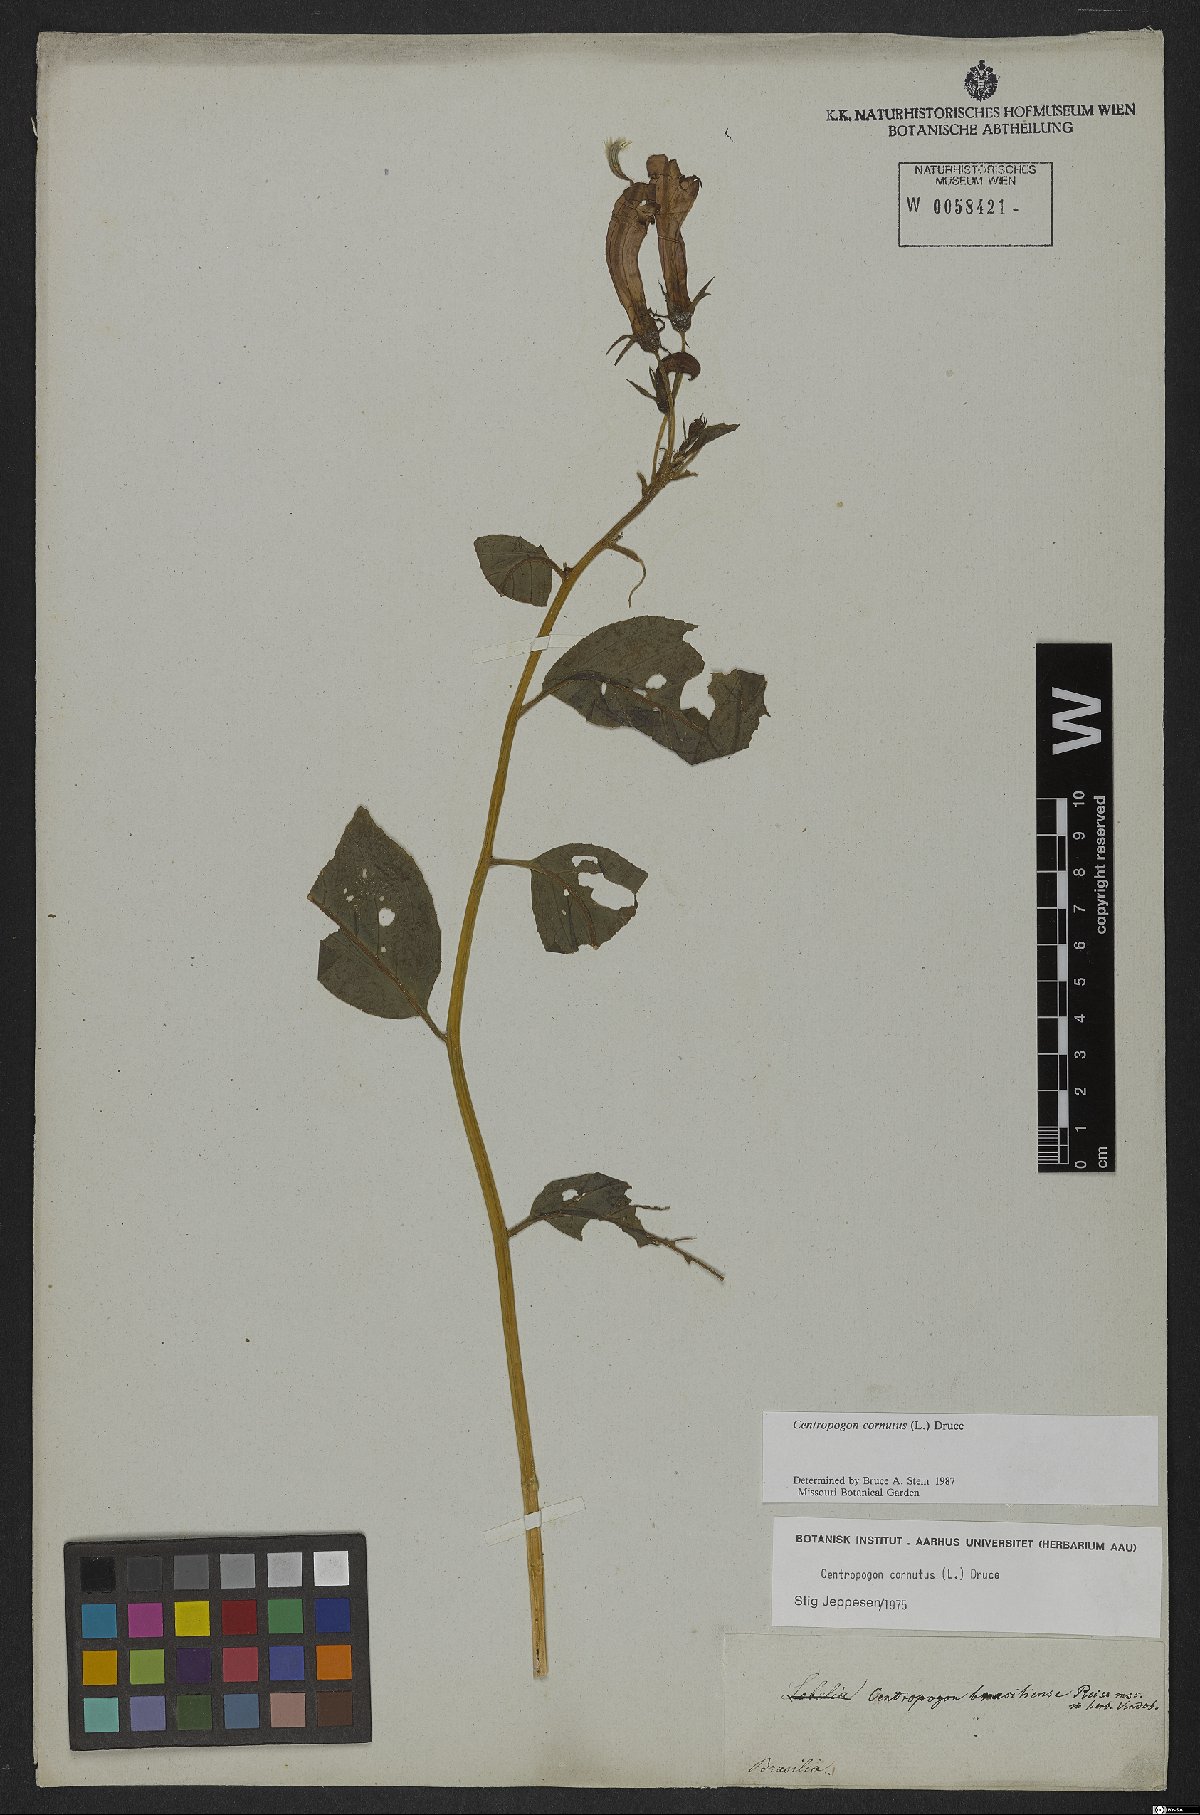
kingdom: Plantae
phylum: Tracheophyta
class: Magnoliopsida
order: Asterales
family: Campanulaceae
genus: Centropogon
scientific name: Centropogon cornutus
